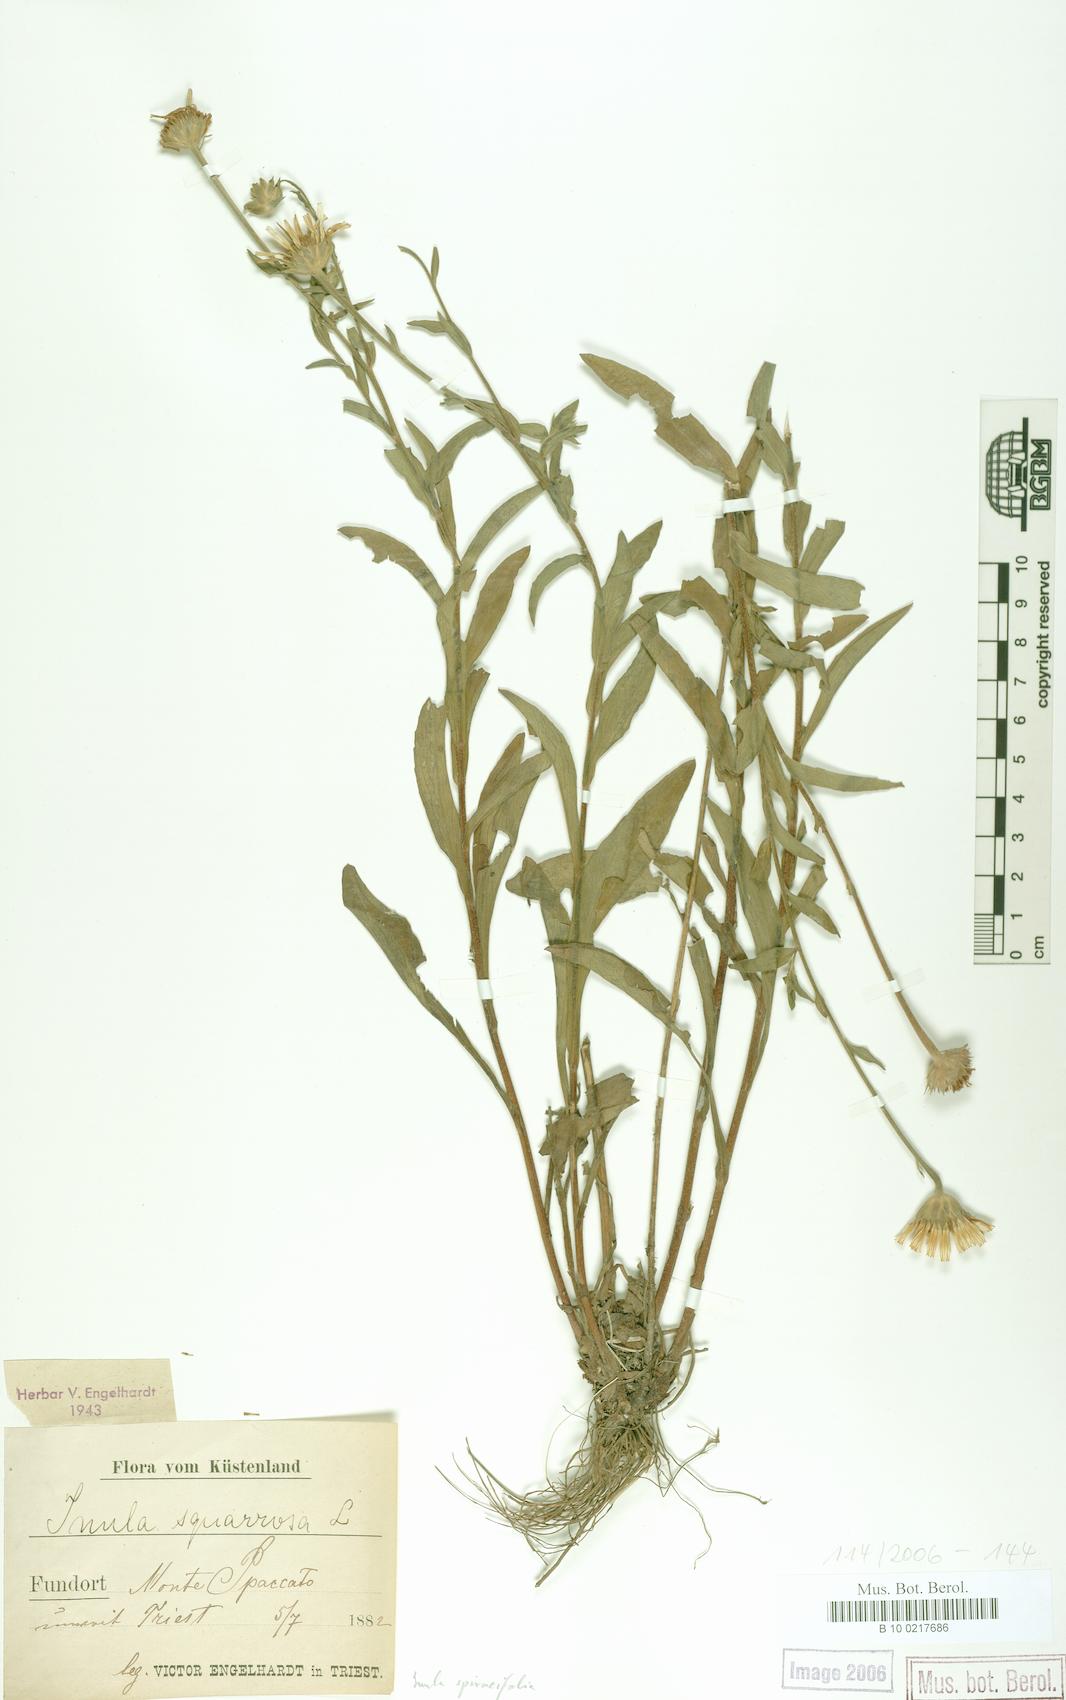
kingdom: Plantae
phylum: Tracheophyta
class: Magnoliopsida
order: Asterales
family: Asteraceae
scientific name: Asteraceae
